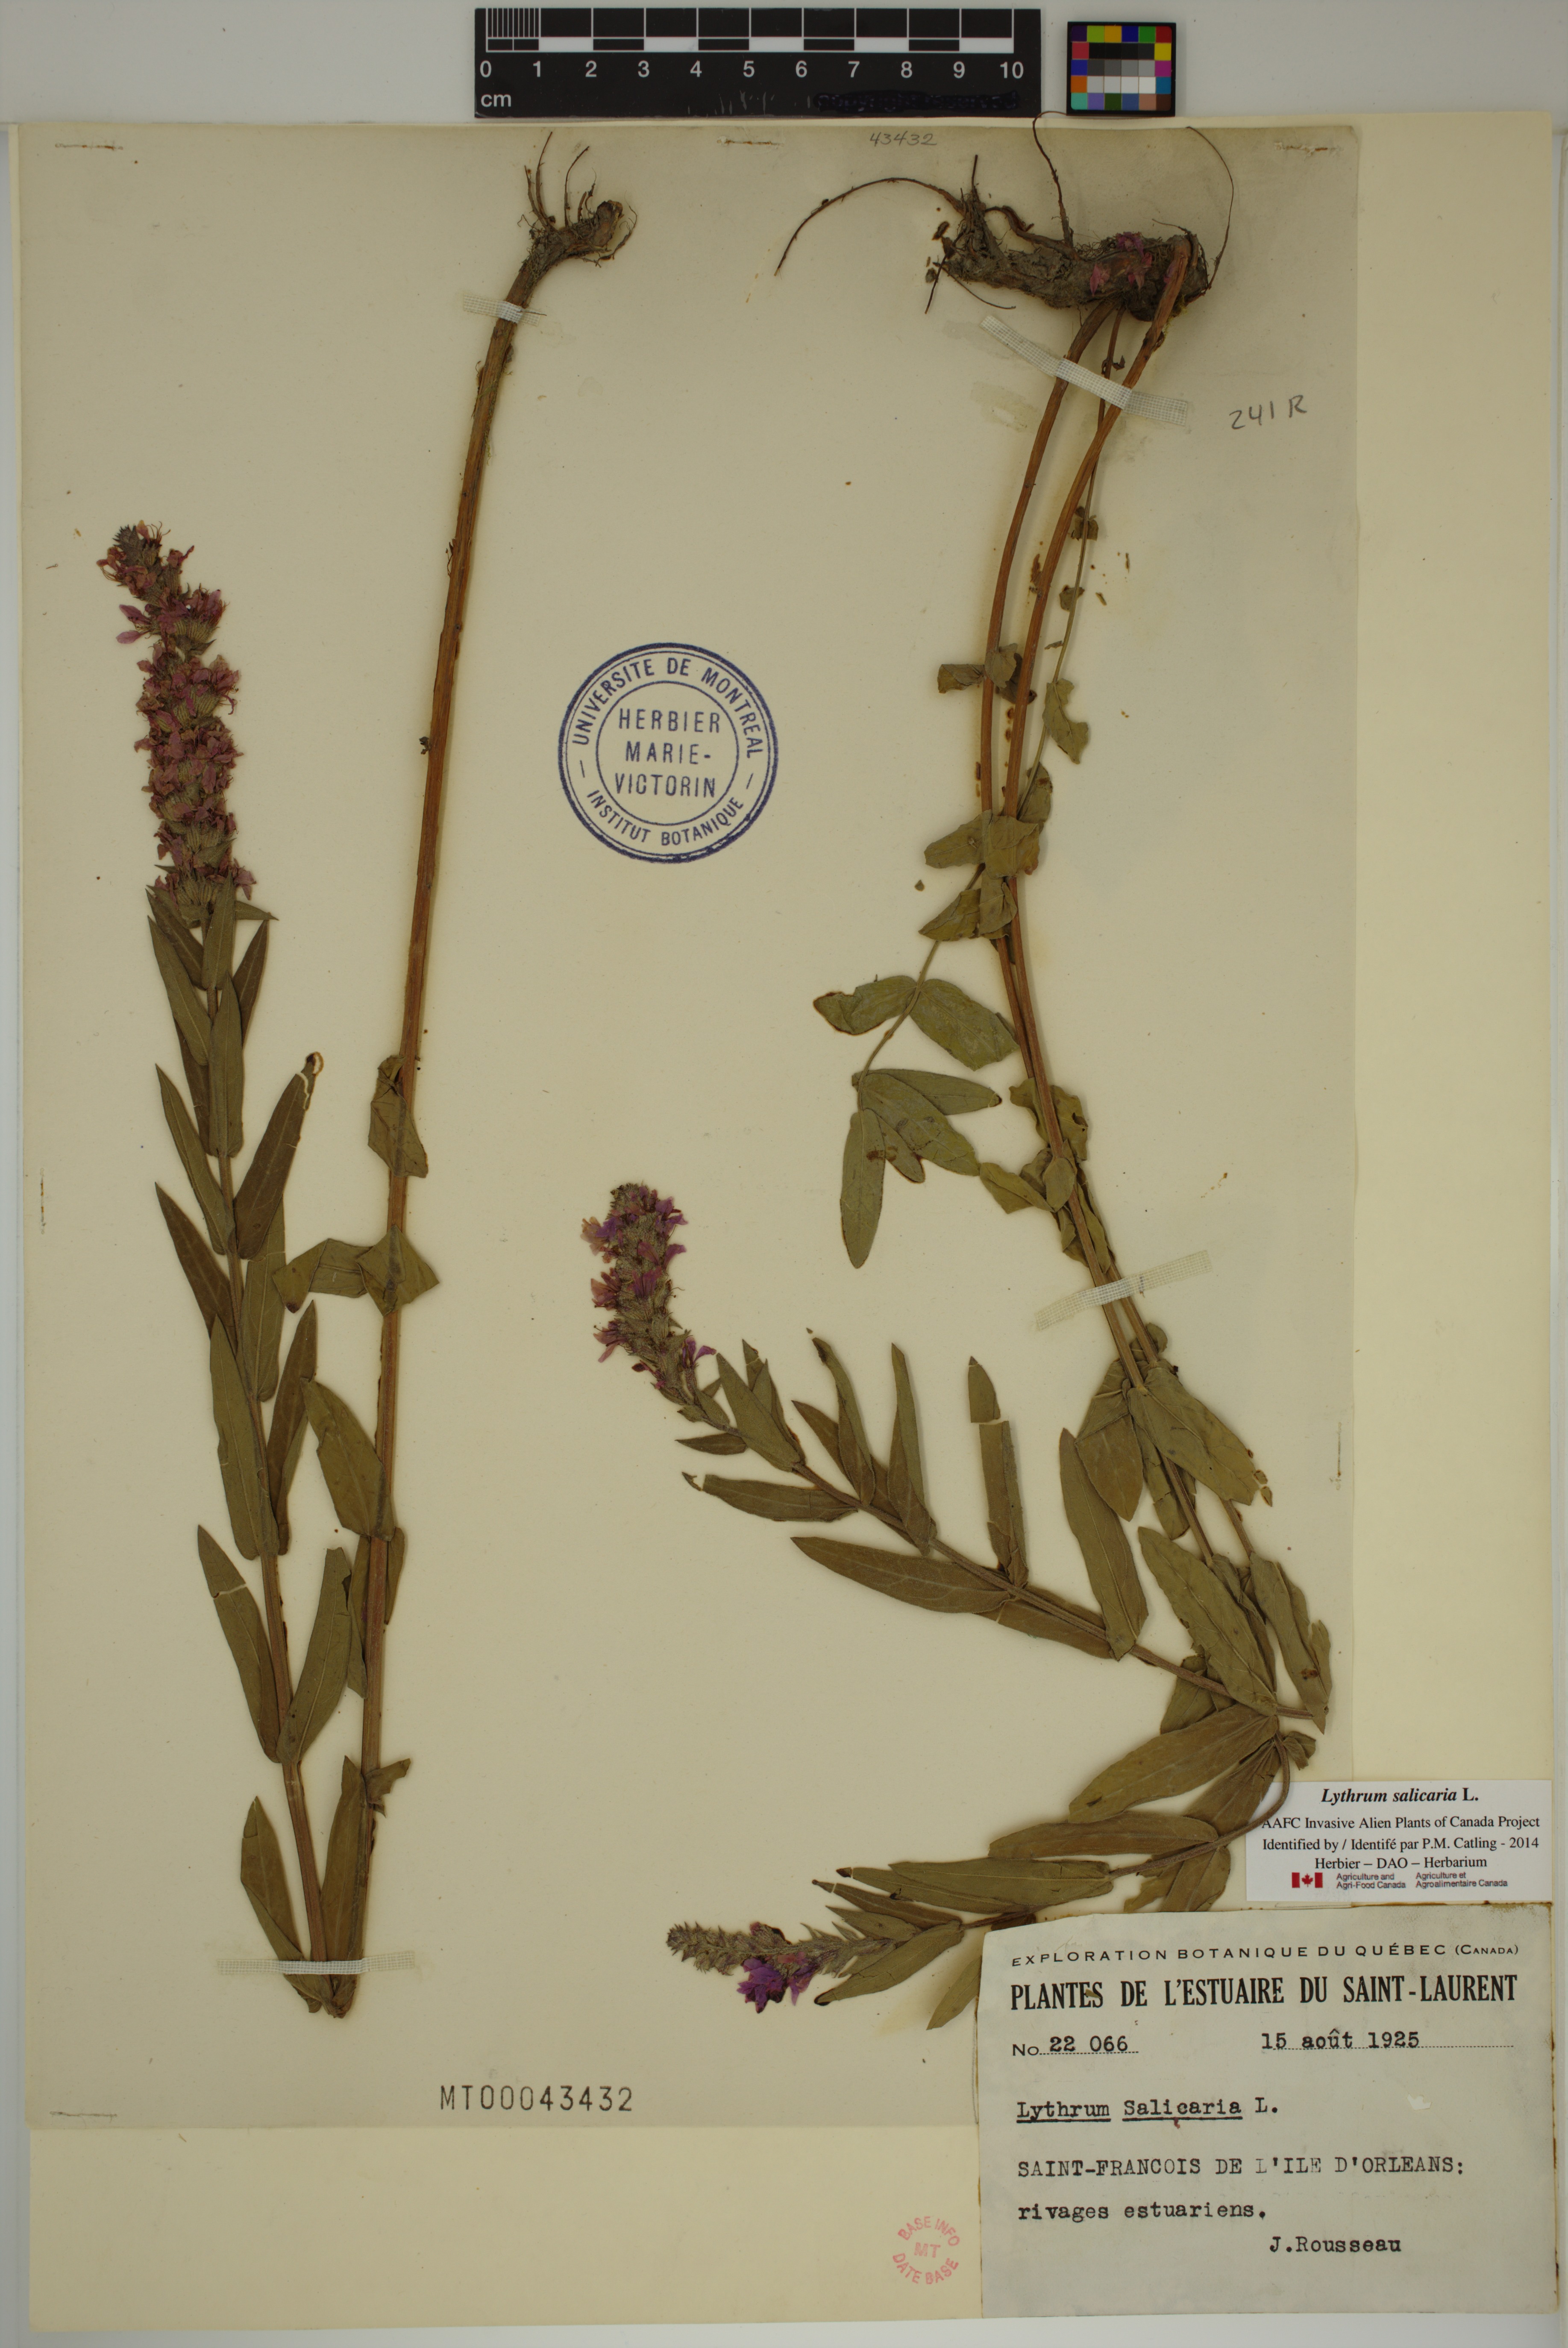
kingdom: Plantae
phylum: Tracheophyta
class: Magnoliopsida
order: Myrtales
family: Lythraceae
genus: Lythrum
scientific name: Lythrum salicaria
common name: Purple loosestrife
